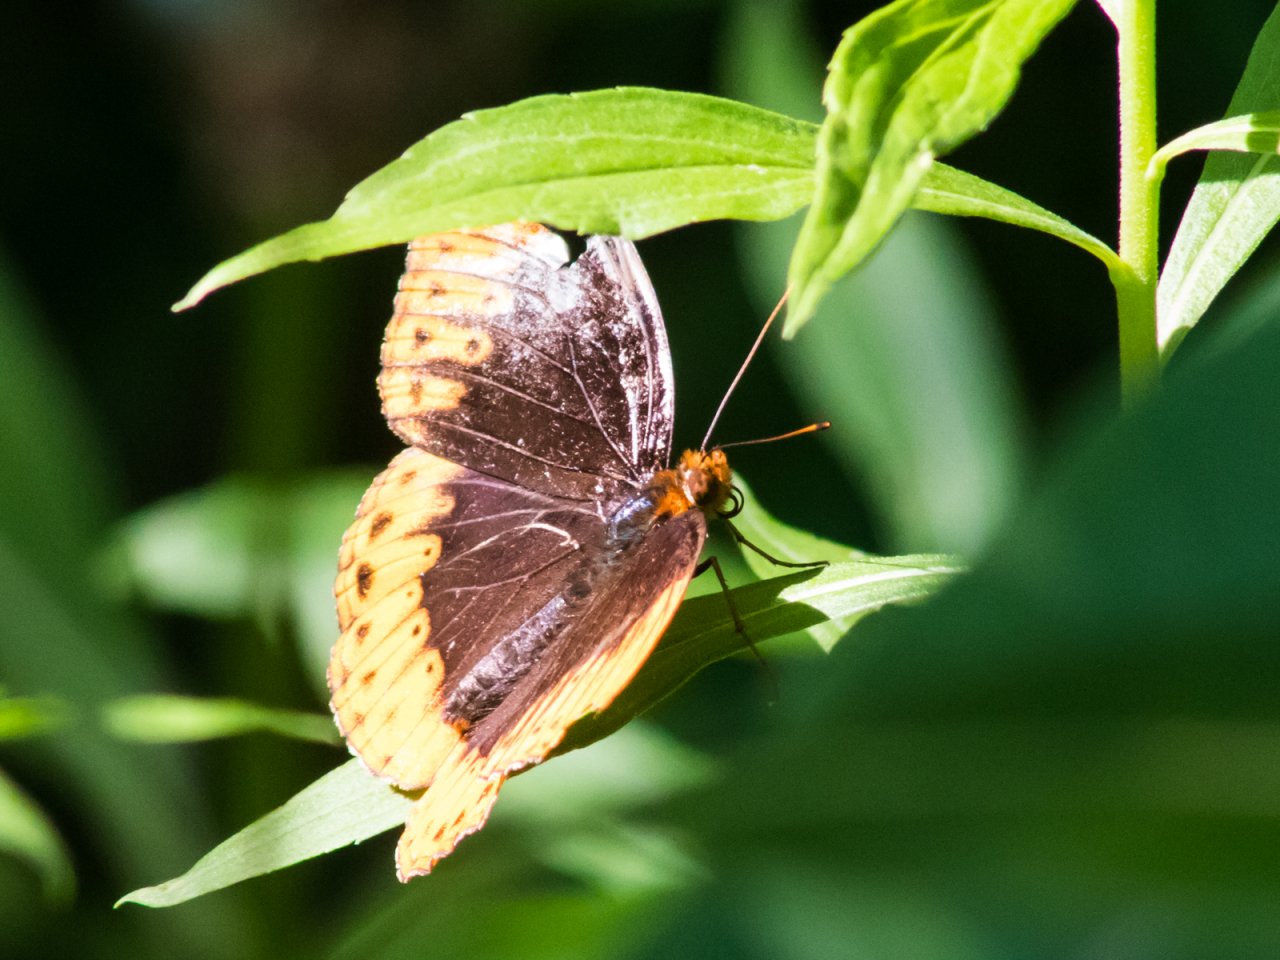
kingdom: Animalia
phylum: Arthropoda
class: Insecta
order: Lepidoptera
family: Nymphalidae
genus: Speyeria
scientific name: Speyeria diana
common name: Diana Fritillary
